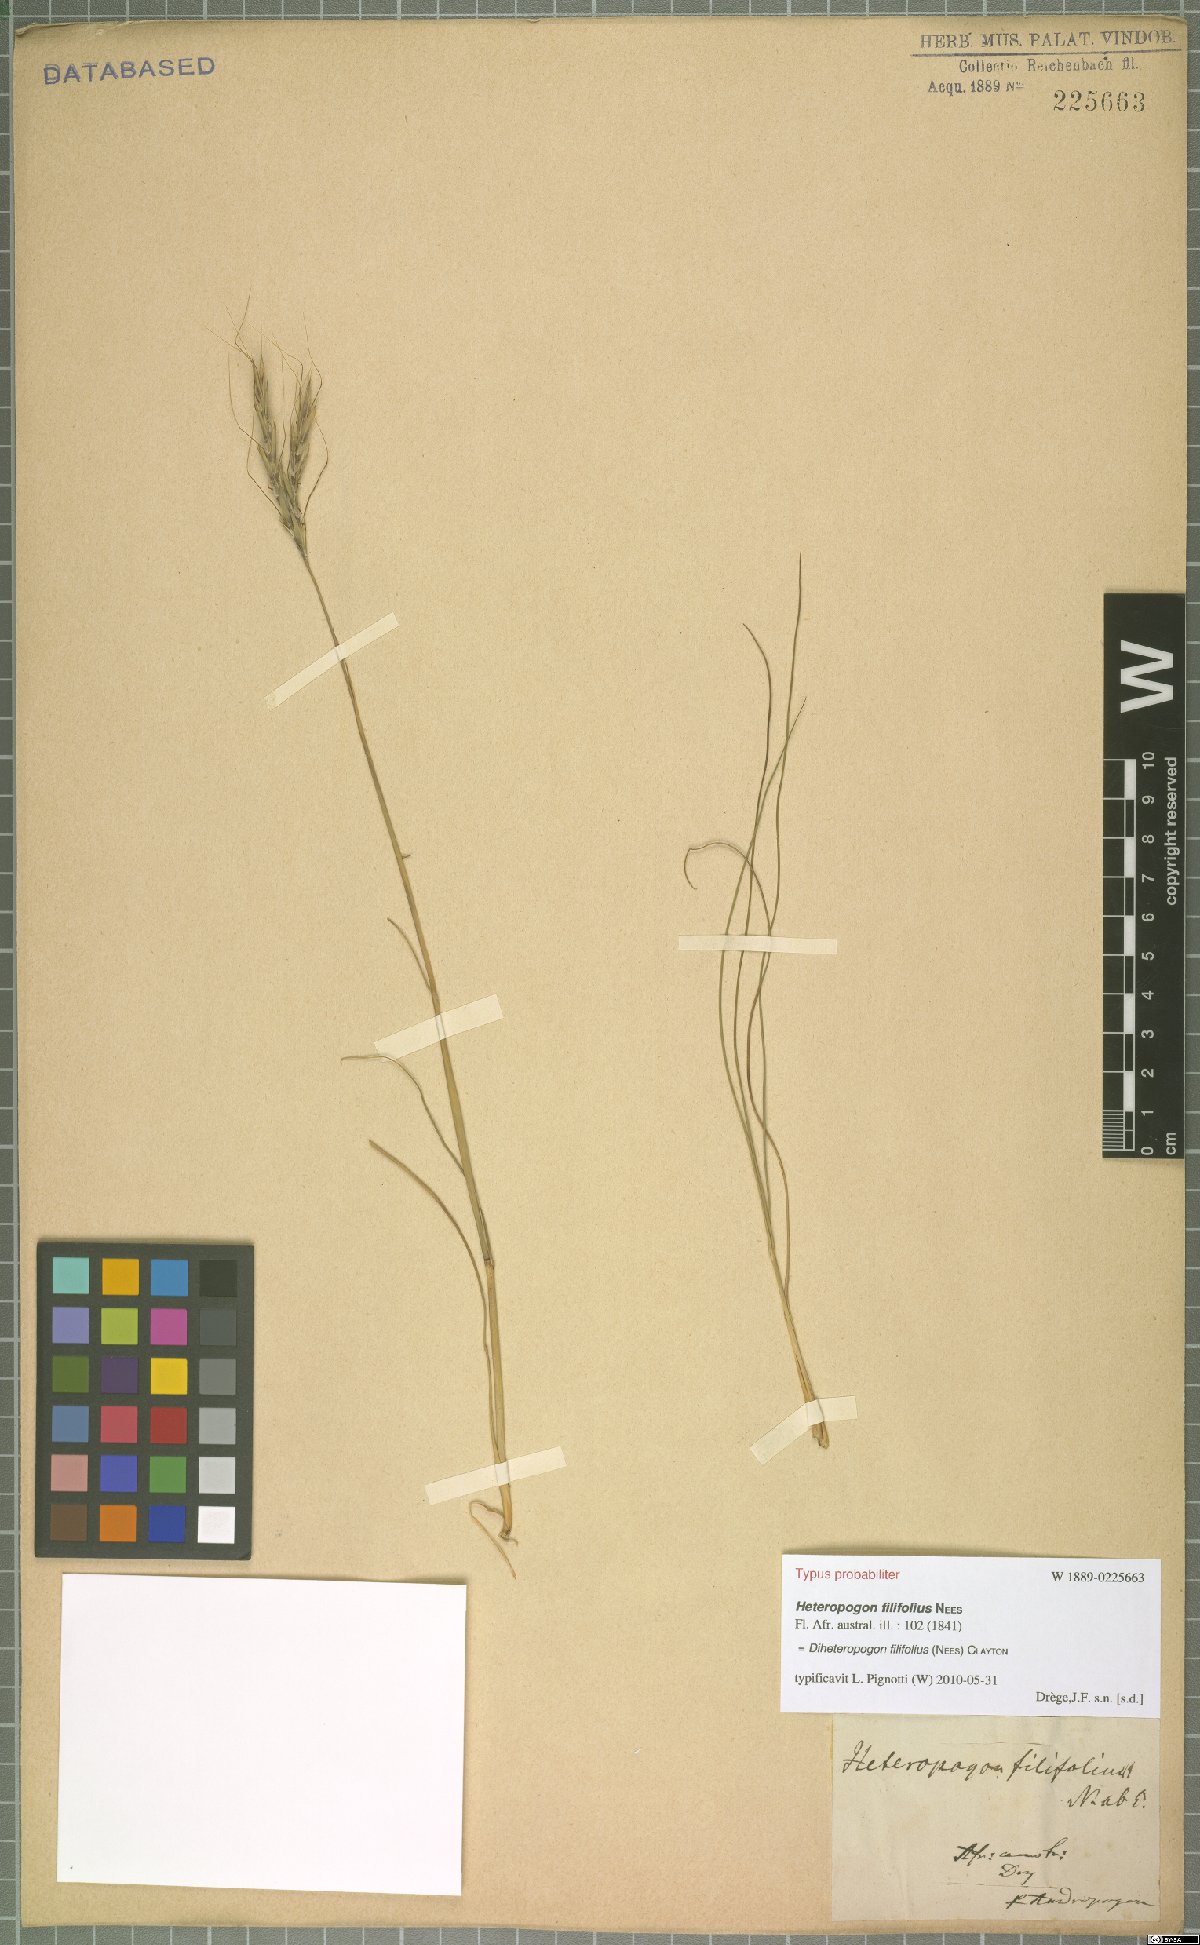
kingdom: Plantae
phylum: Tracheophyta
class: Liliopsida
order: Poales
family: Poaceae
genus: Diheteropogon
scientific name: Diheteropogon filifolius
